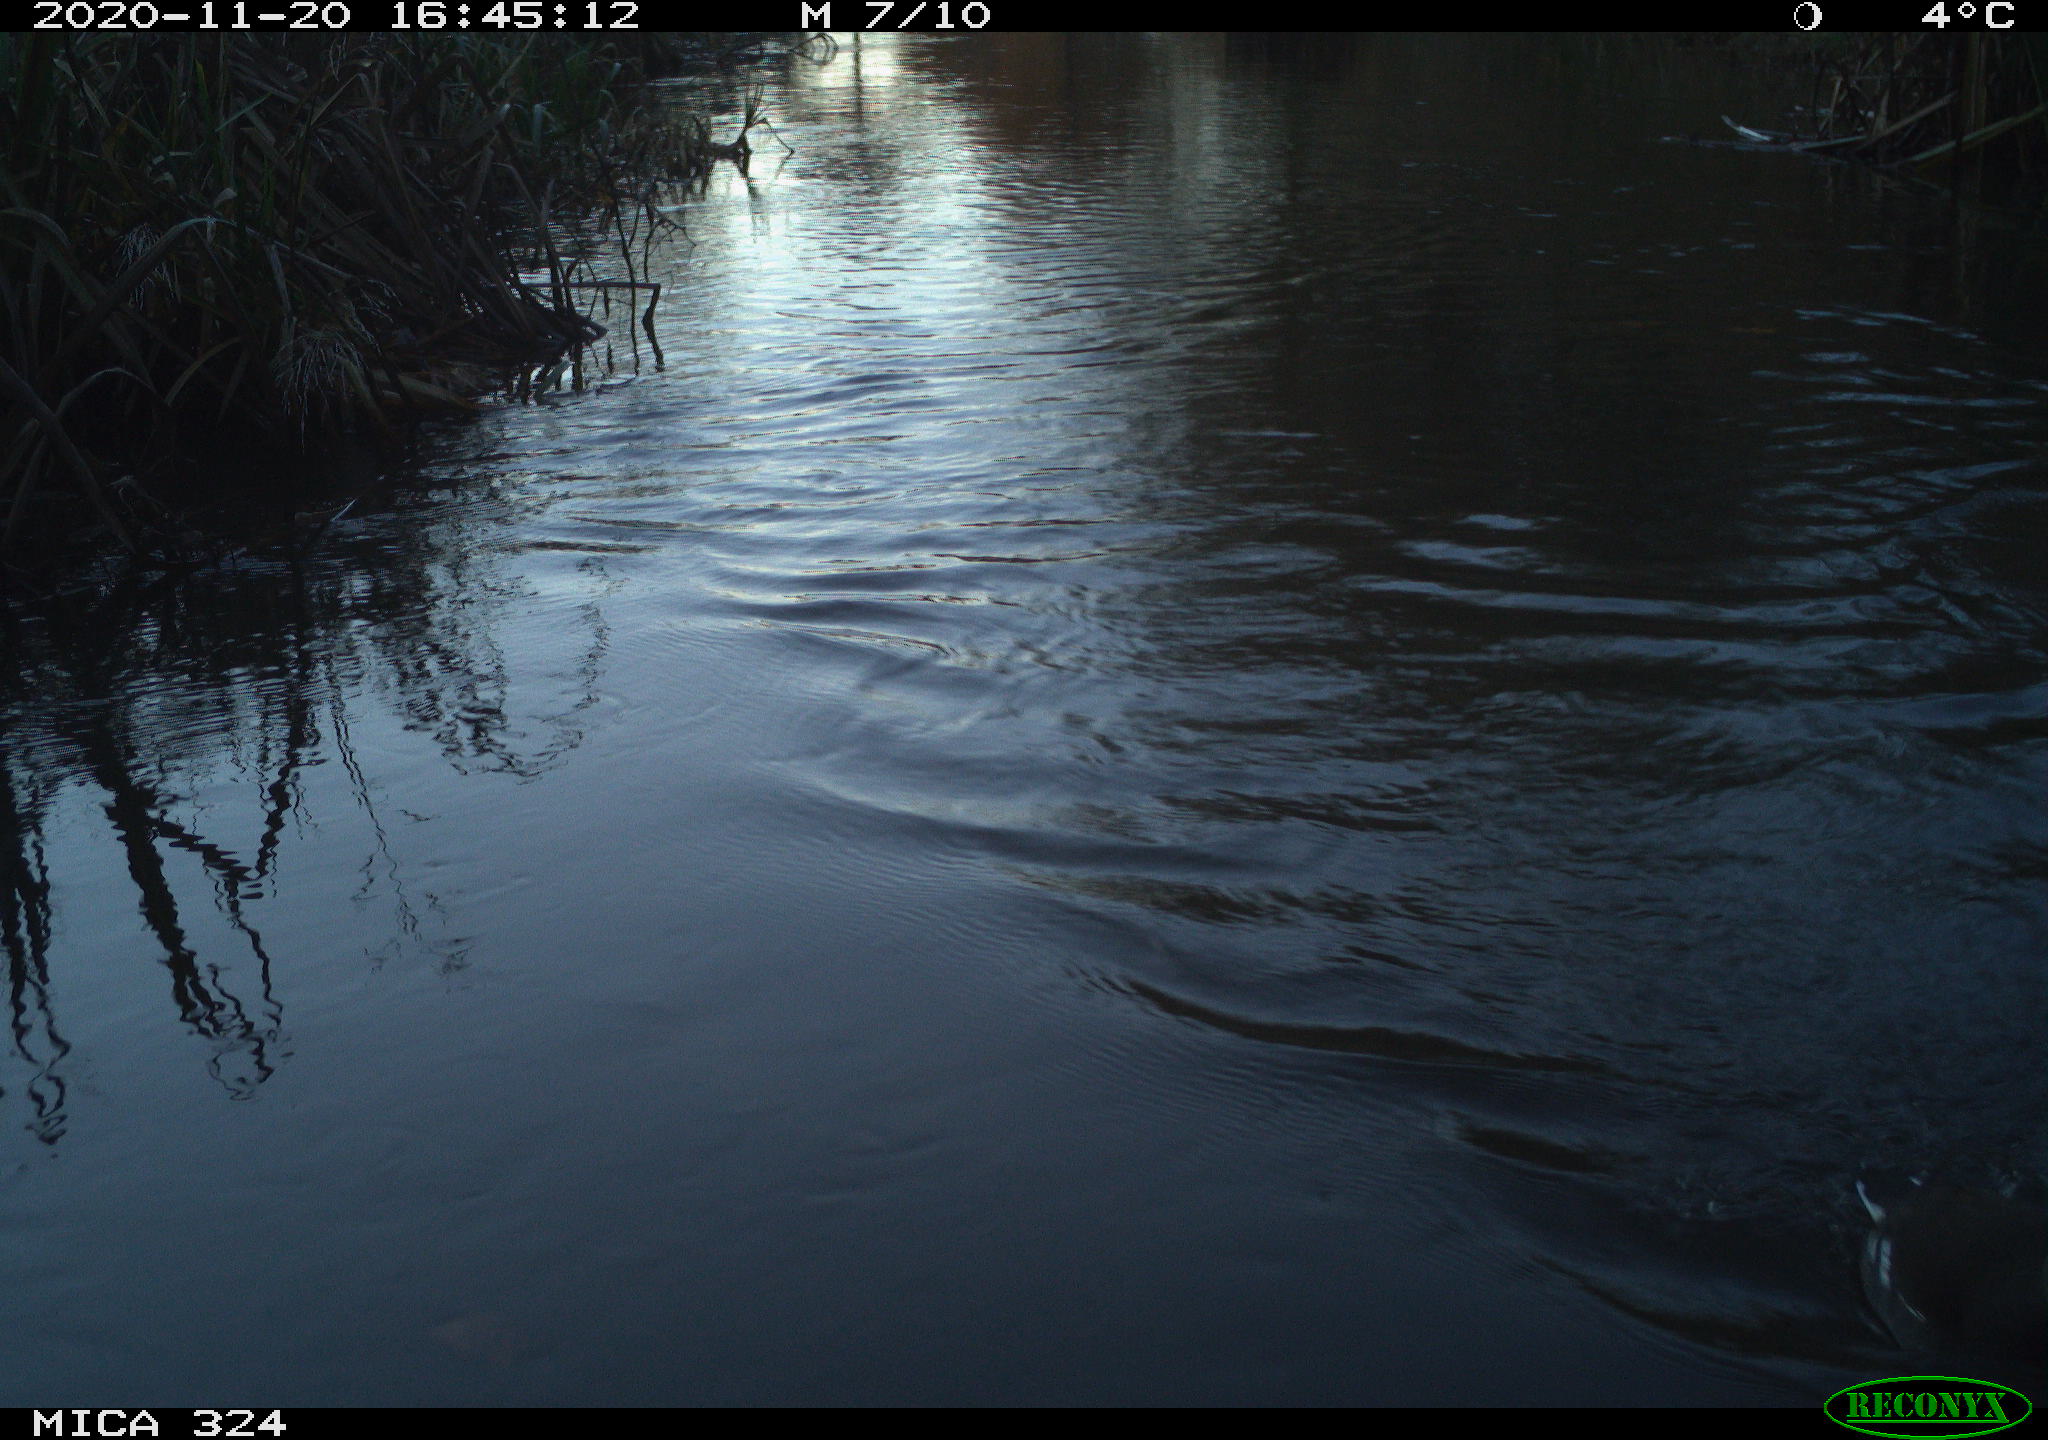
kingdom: Animalia
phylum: Chordata
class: Aves
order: Gruiformes
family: Rallidae
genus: Gallinula
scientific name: Gallinula chloropus
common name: Common moorhen
